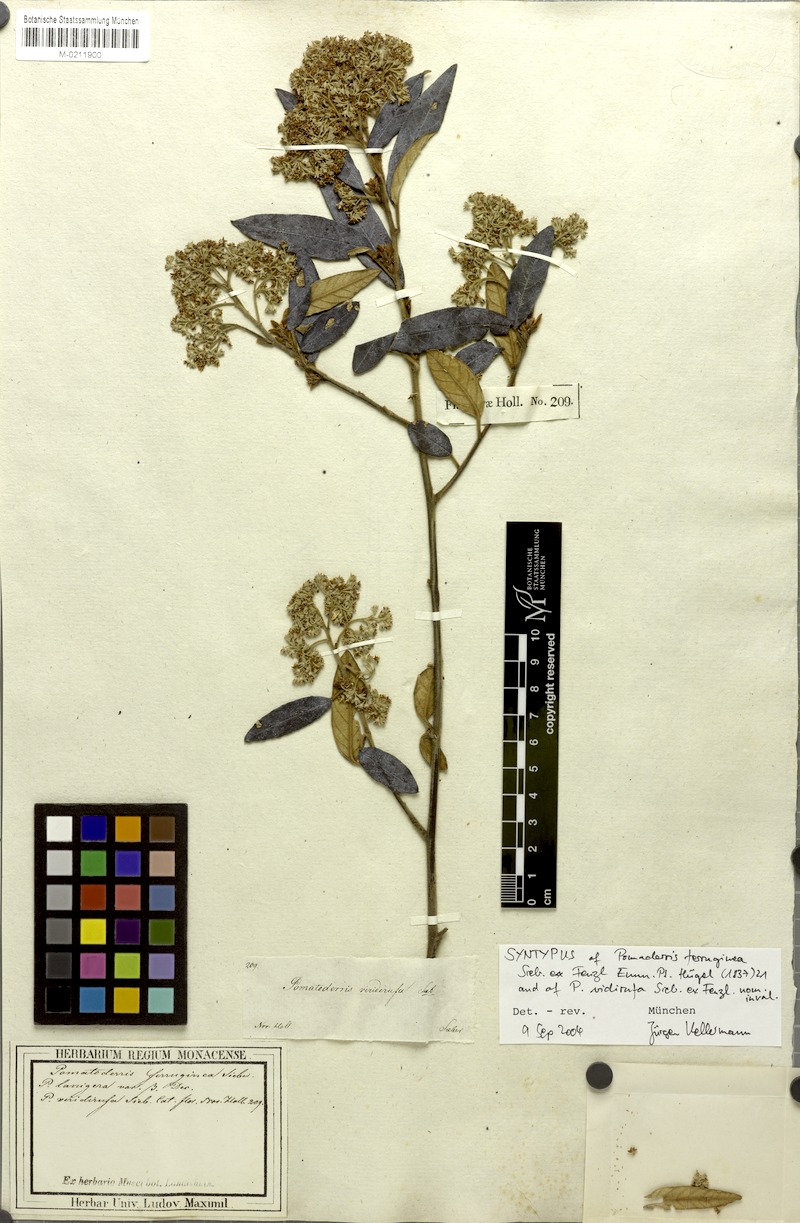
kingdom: Plantae
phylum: Tracheophyta
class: Magnoliopsida
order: Rosales
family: Rhamnaceae
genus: Pomaderris
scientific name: Pomaderris wendlandiana
